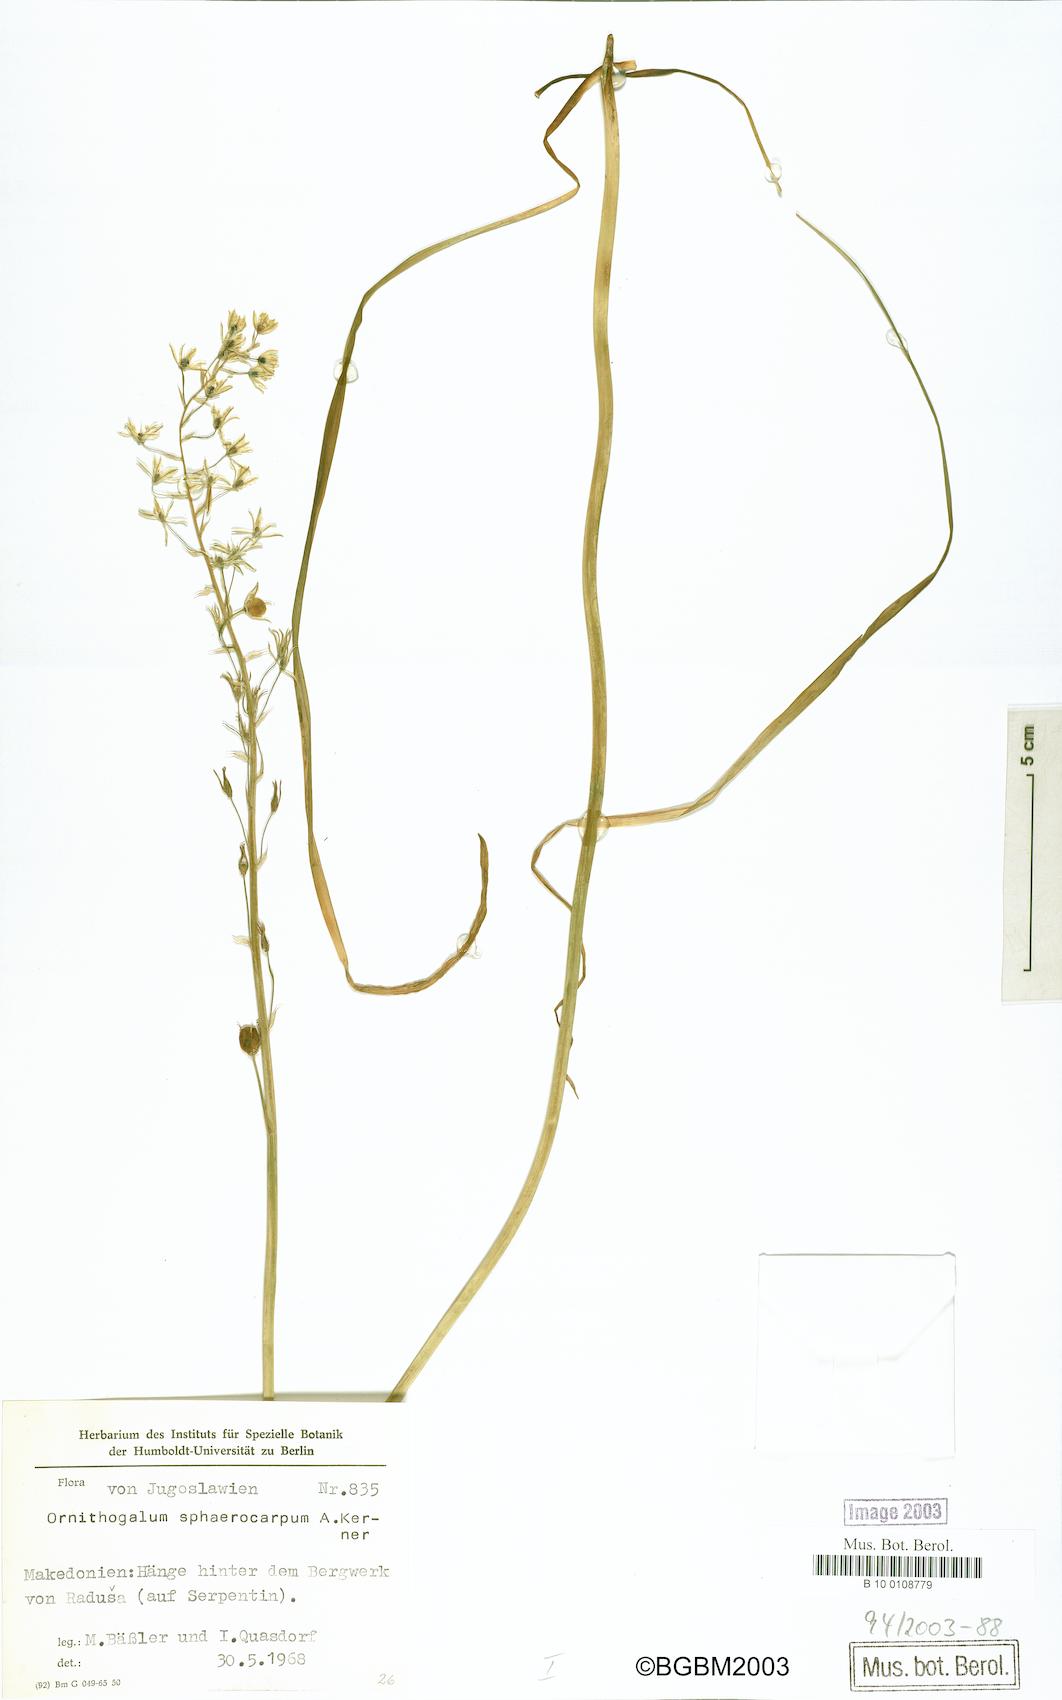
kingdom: Plantae
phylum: Tracheophyta
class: Liliopsida
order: Asparagales
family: Asparagaceae
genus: Ornithogalum
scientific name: Ornithogalum sphaerocarpum
